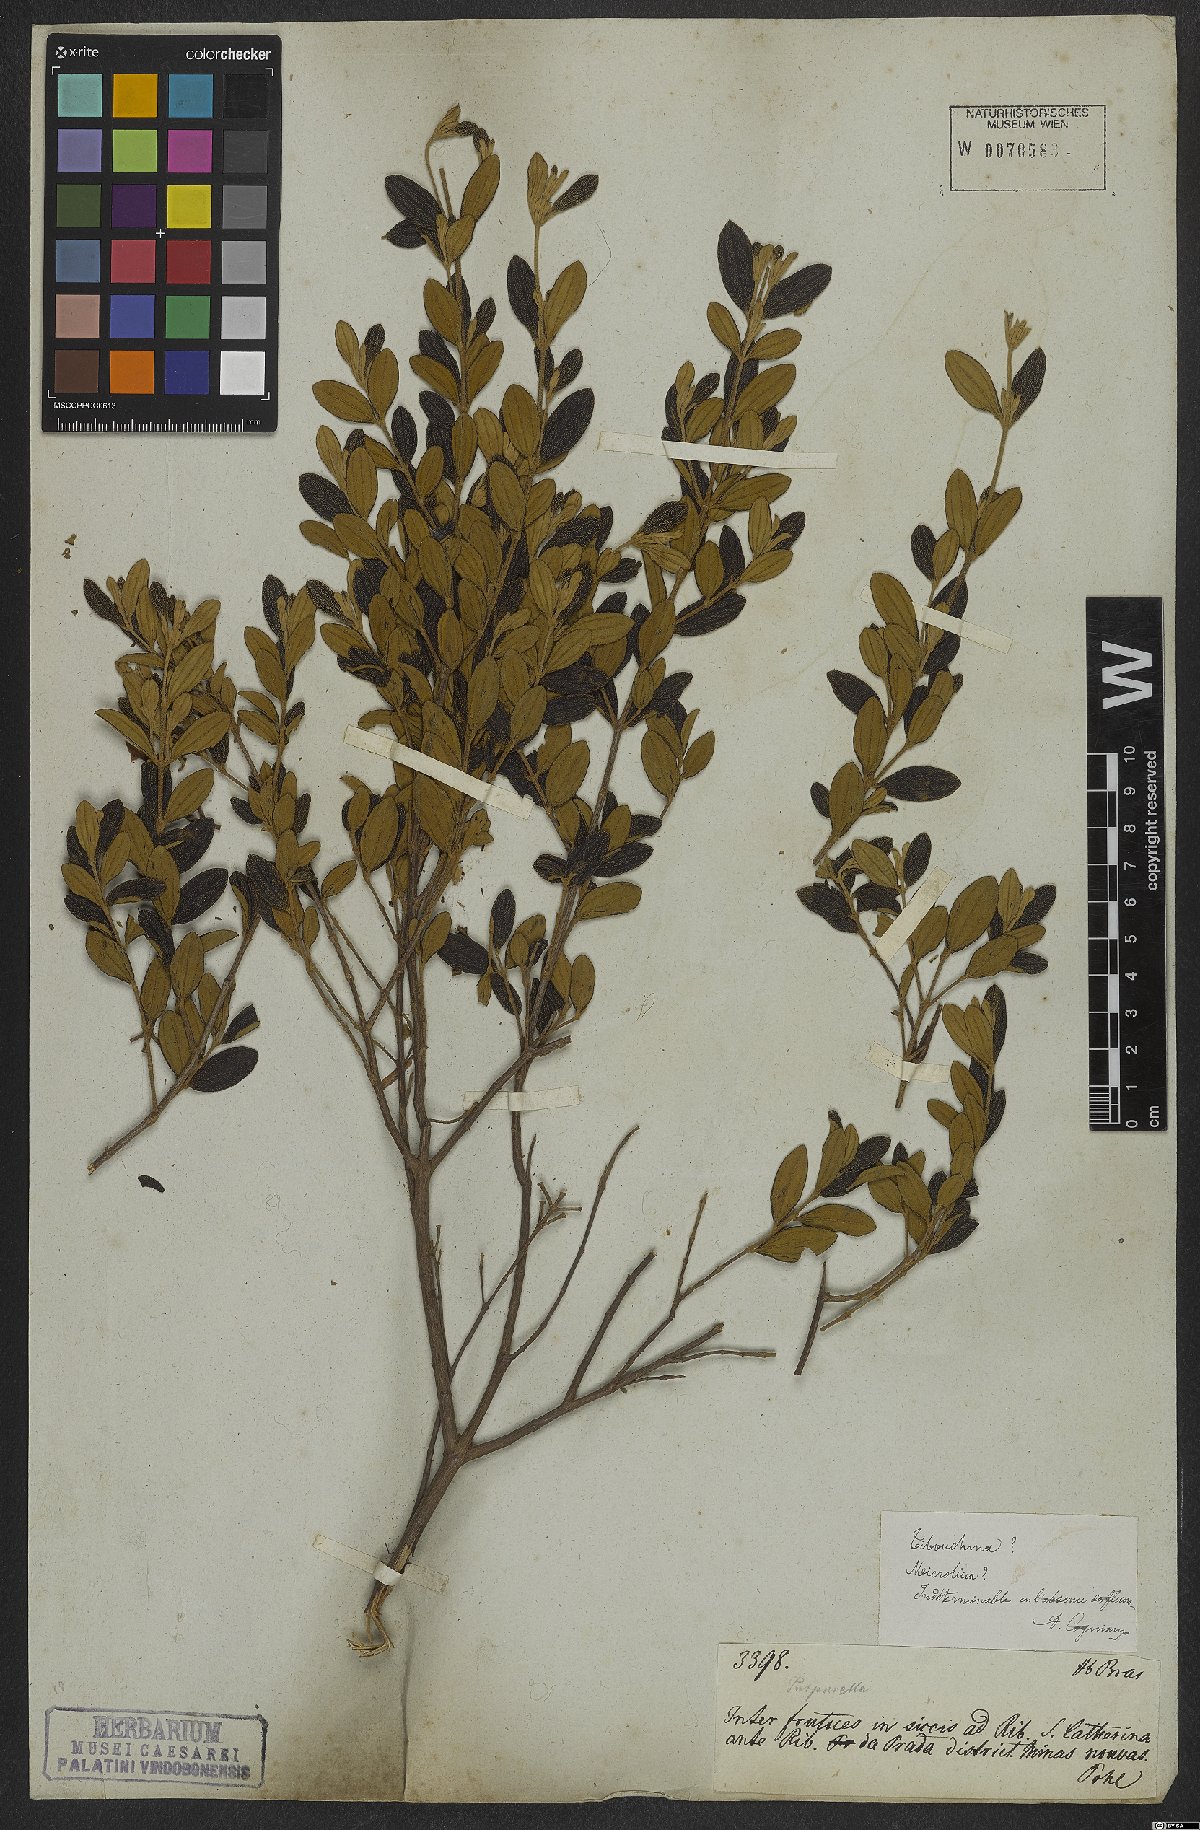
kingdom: Plantae
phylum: Tracheophyta
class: Magnoliopsida
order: Myrtales
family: Melastomataceae
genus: Tibouchina
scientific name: Tibouchina
